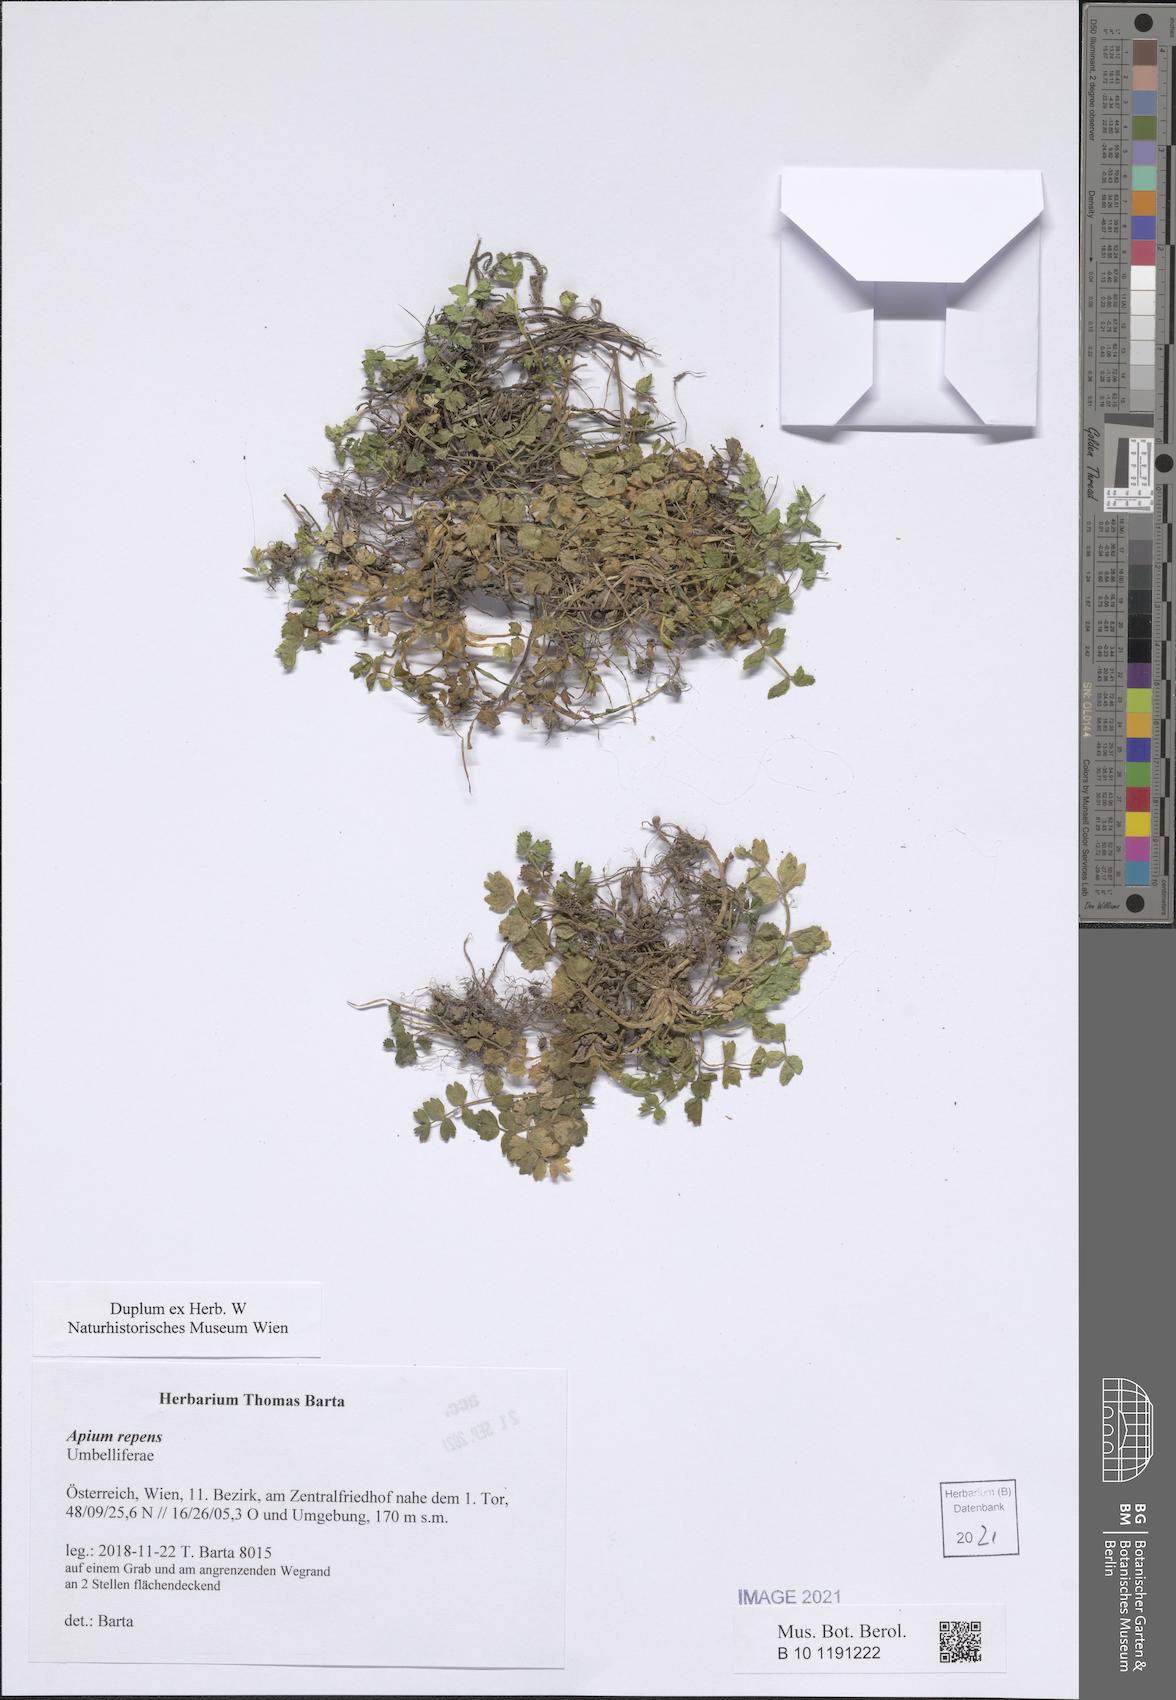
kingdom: Plantae
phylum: Tracheophyta
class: Magnoliopsida
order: Apiales
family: Apiaceae
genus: Helosciadium
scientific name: Helosciadium repens
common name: Creeping marshwort
